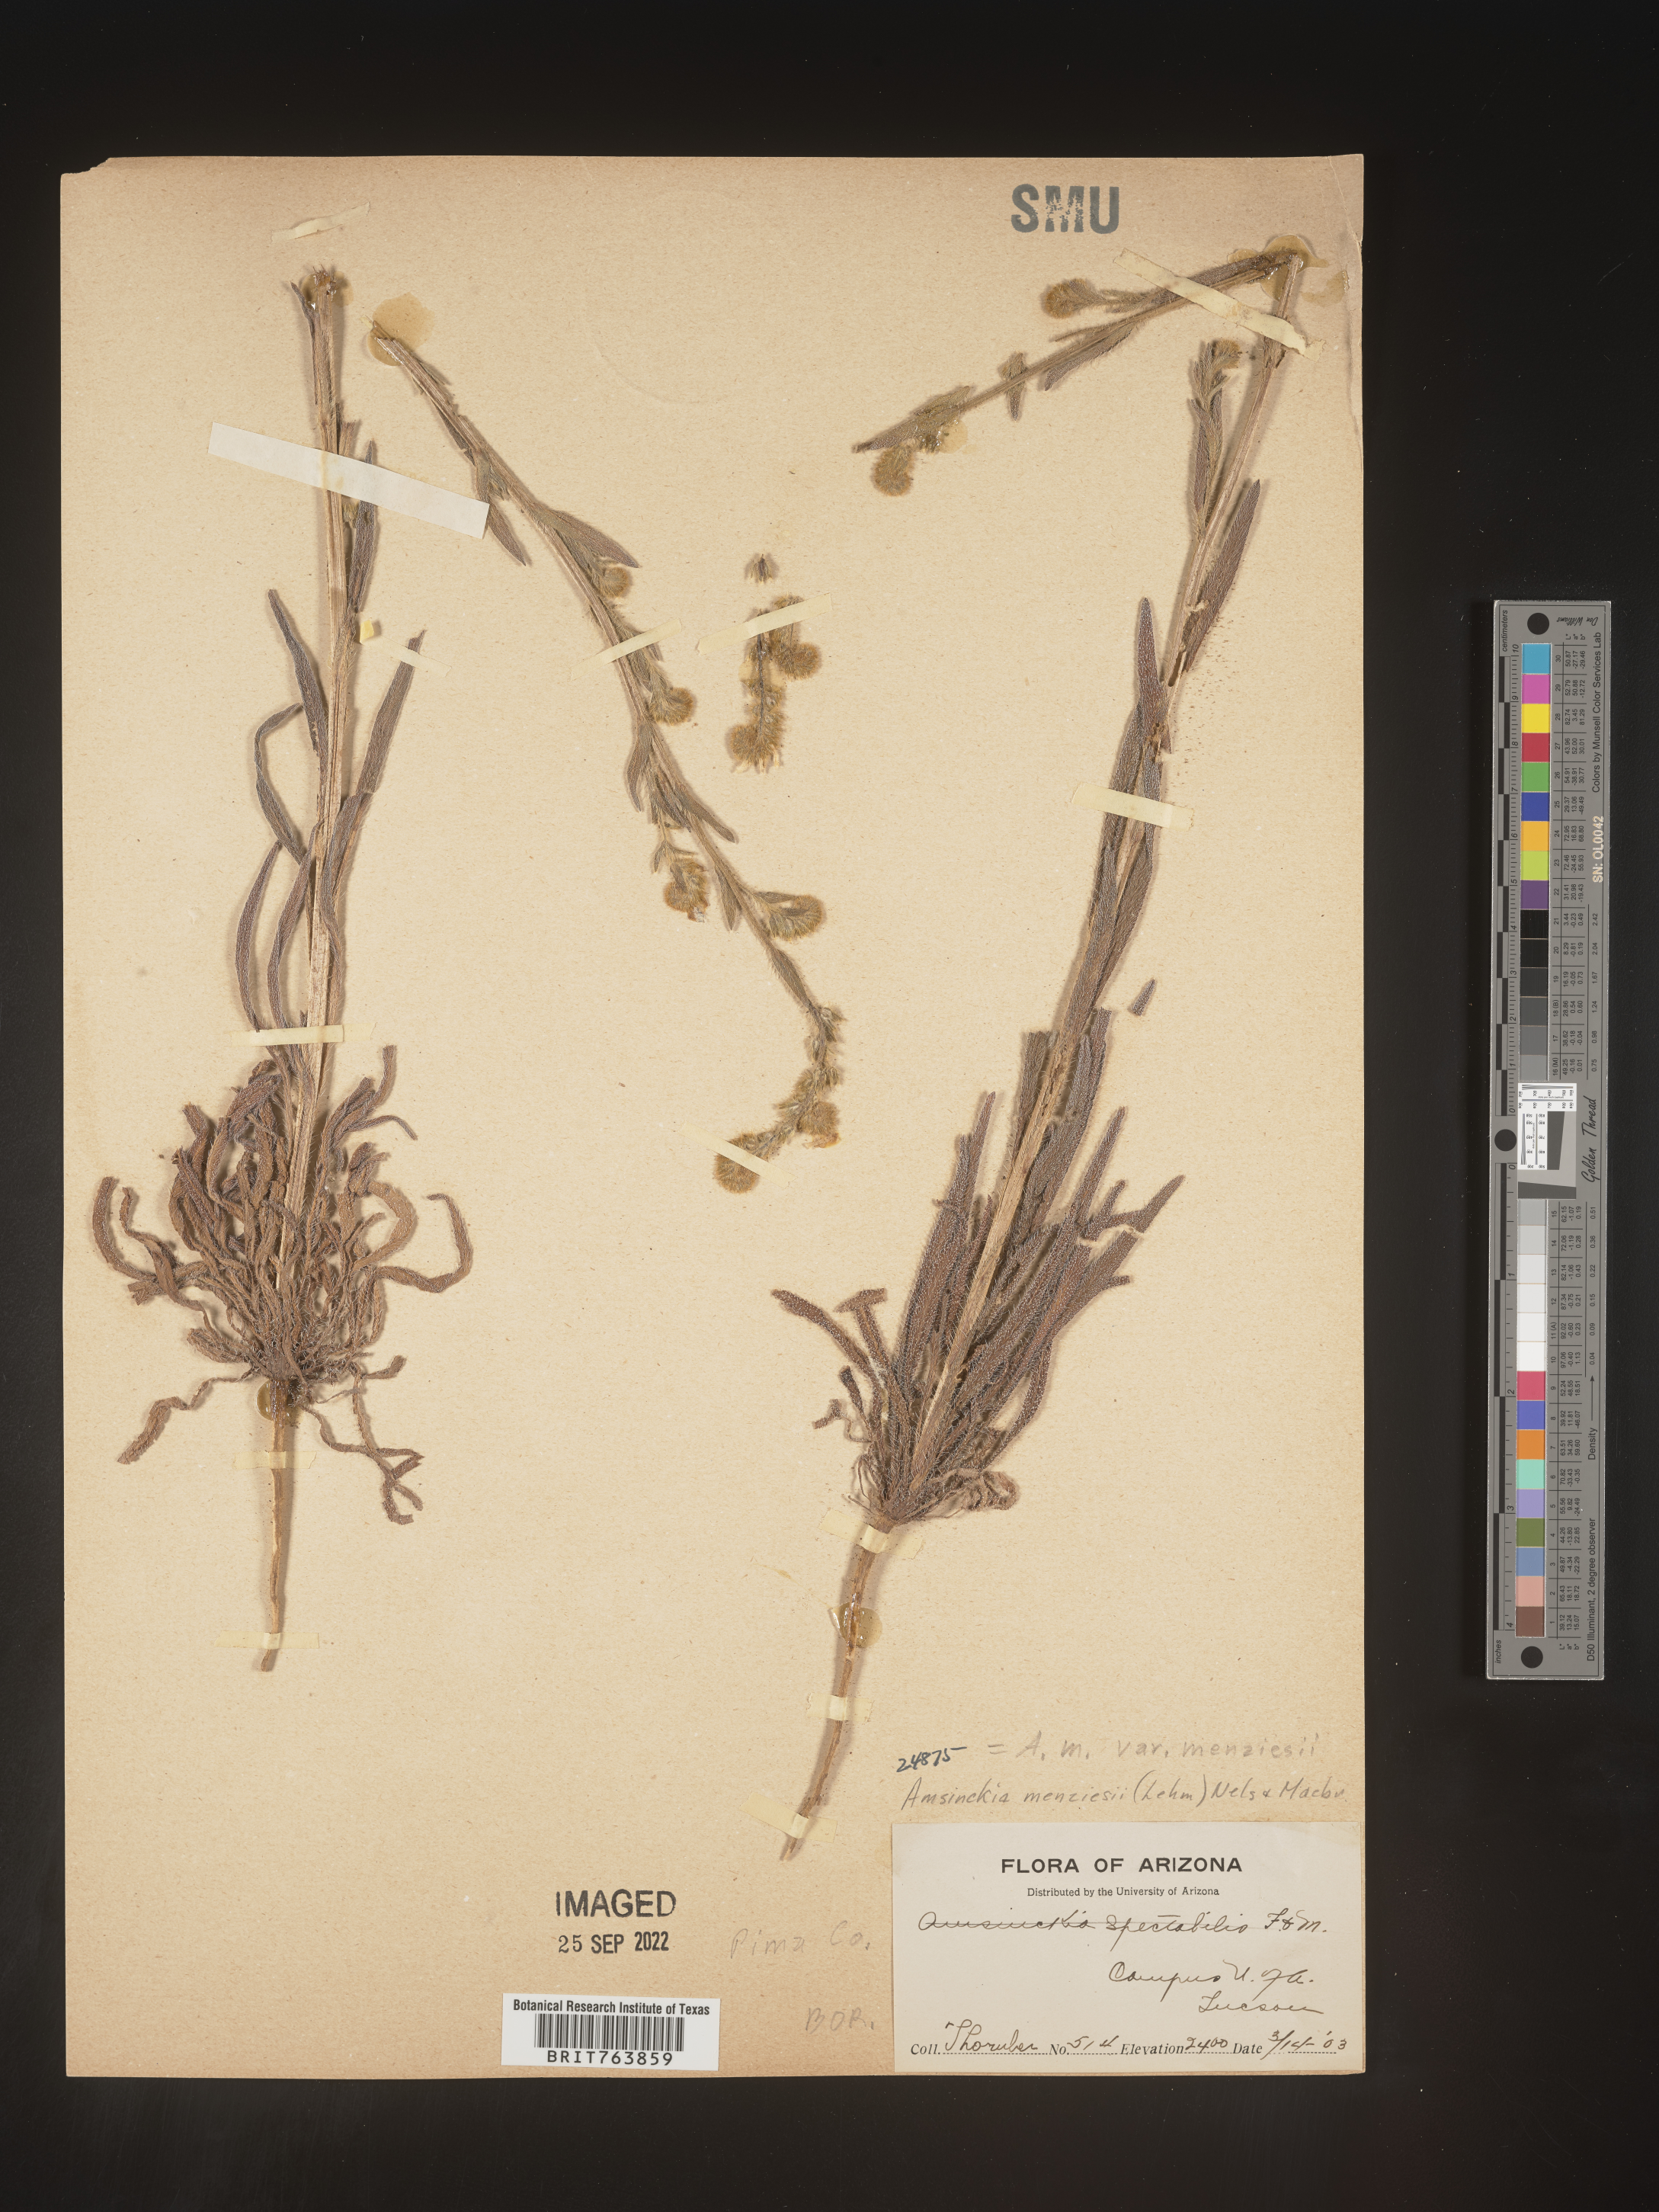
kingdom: Plantae
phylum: Tracheophyta
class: Magnoliopsida
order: Boraginales
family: Boraginaceae
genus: Amsinckia
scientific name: Amsinckia menziesii
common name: Menzies' fiddleneck
